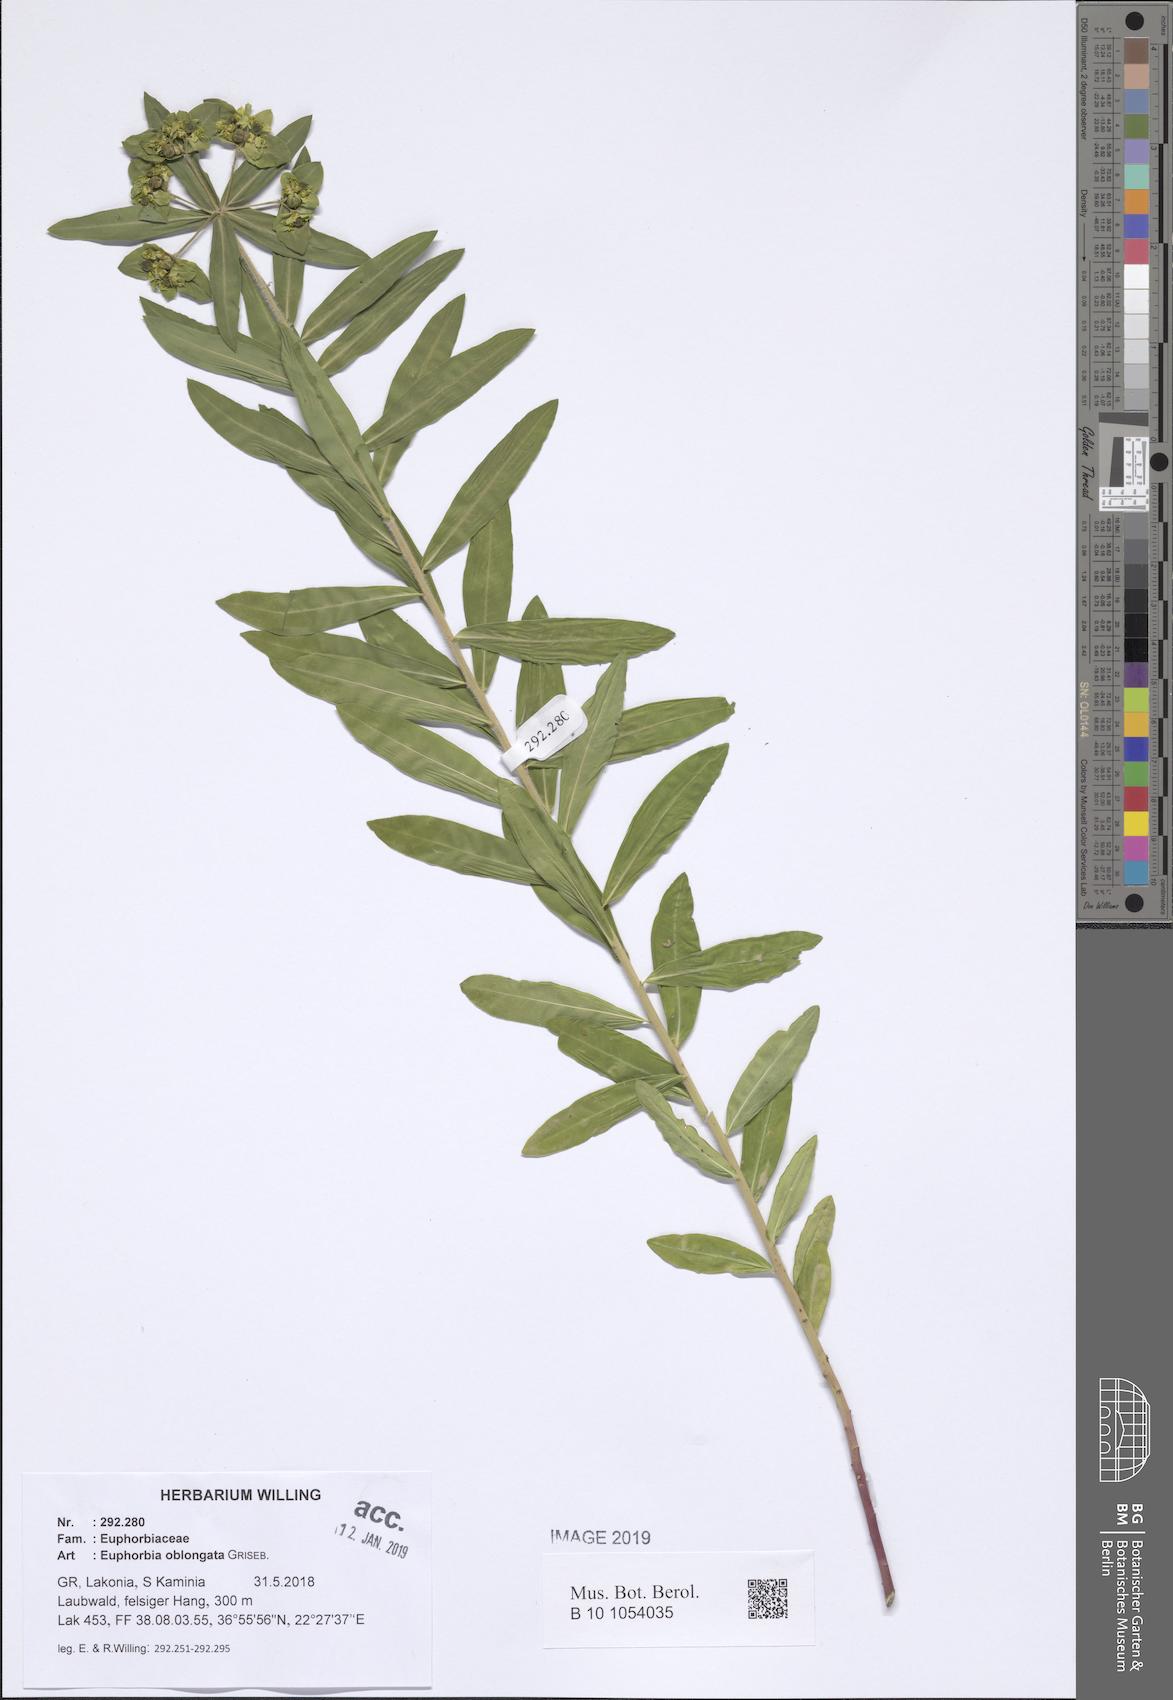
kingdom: Plantae
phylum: Tracheophyta
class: Magnoliopsida
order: Malpighiales
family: Euphorbiaceae
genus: Euphorbia
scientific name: Euphorbia oblongata
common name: Balkan spurge
